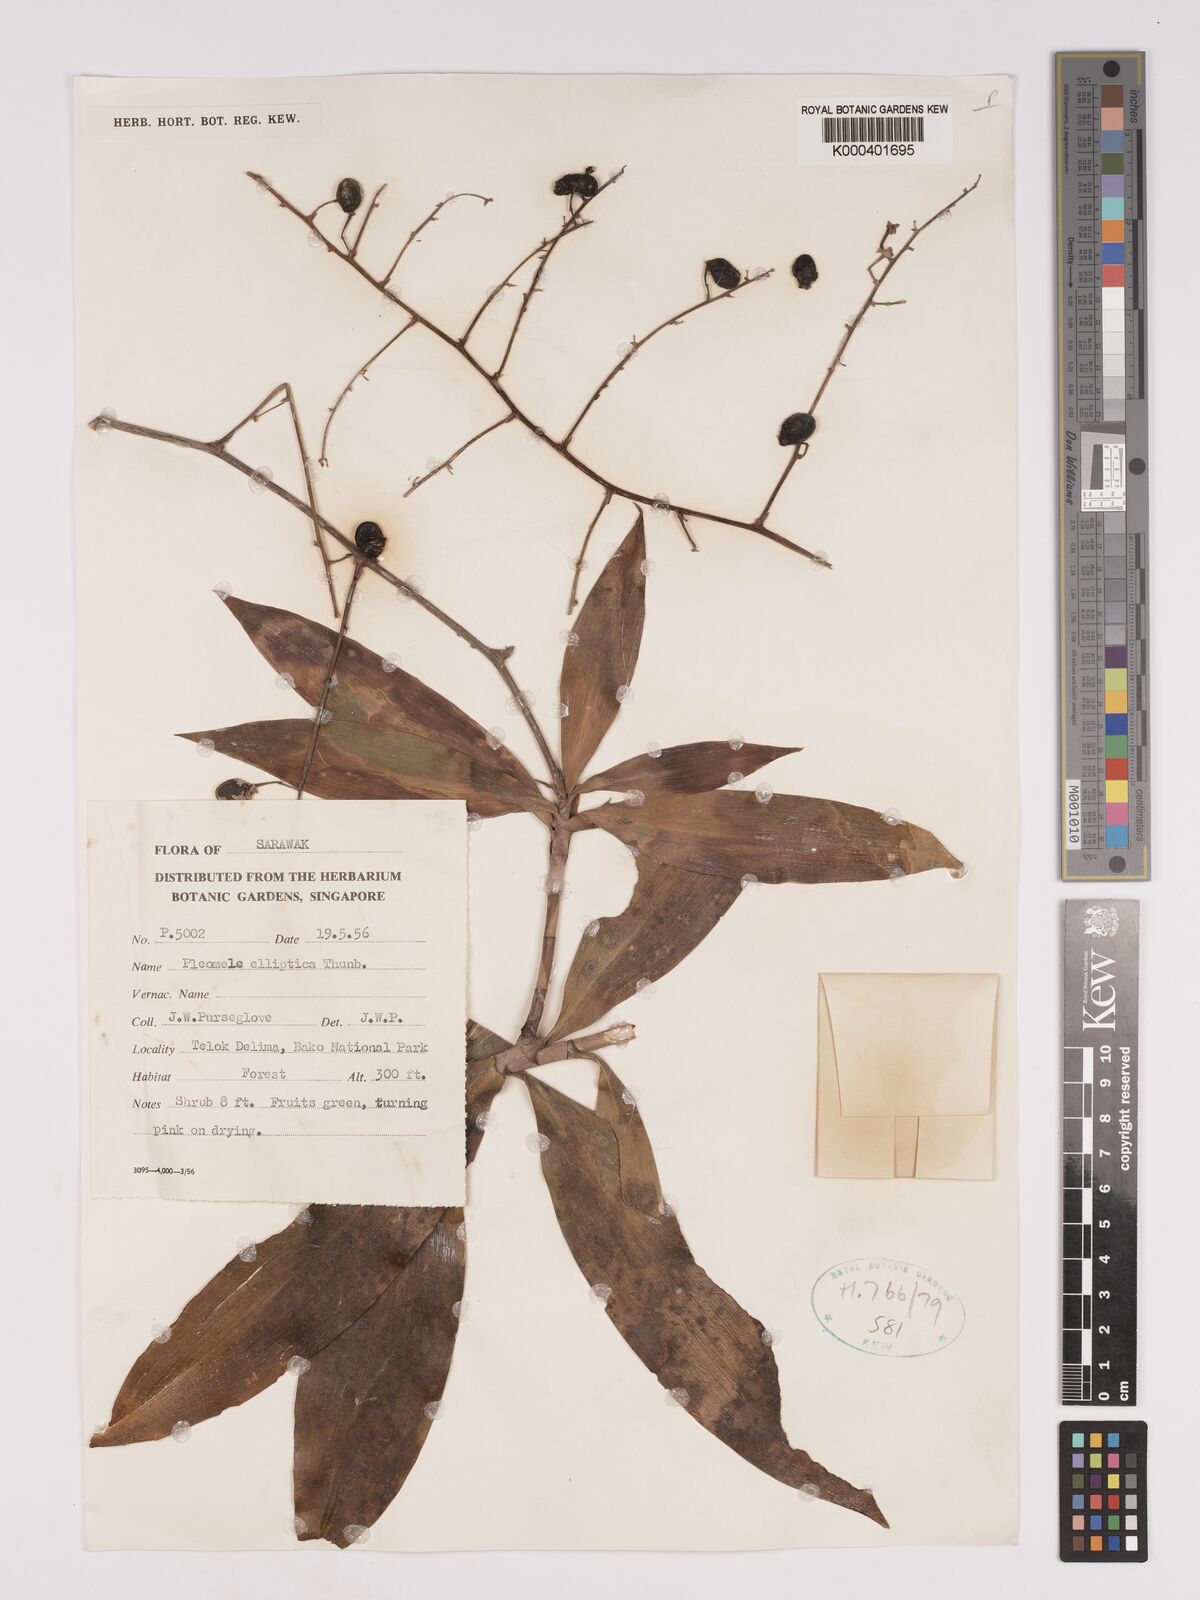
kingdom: Plantae
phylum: Tracheophyta
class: Liliopsida
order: Asparagales
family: Asparagaceae
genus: Dracaena
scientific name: Dracaena elliptica
